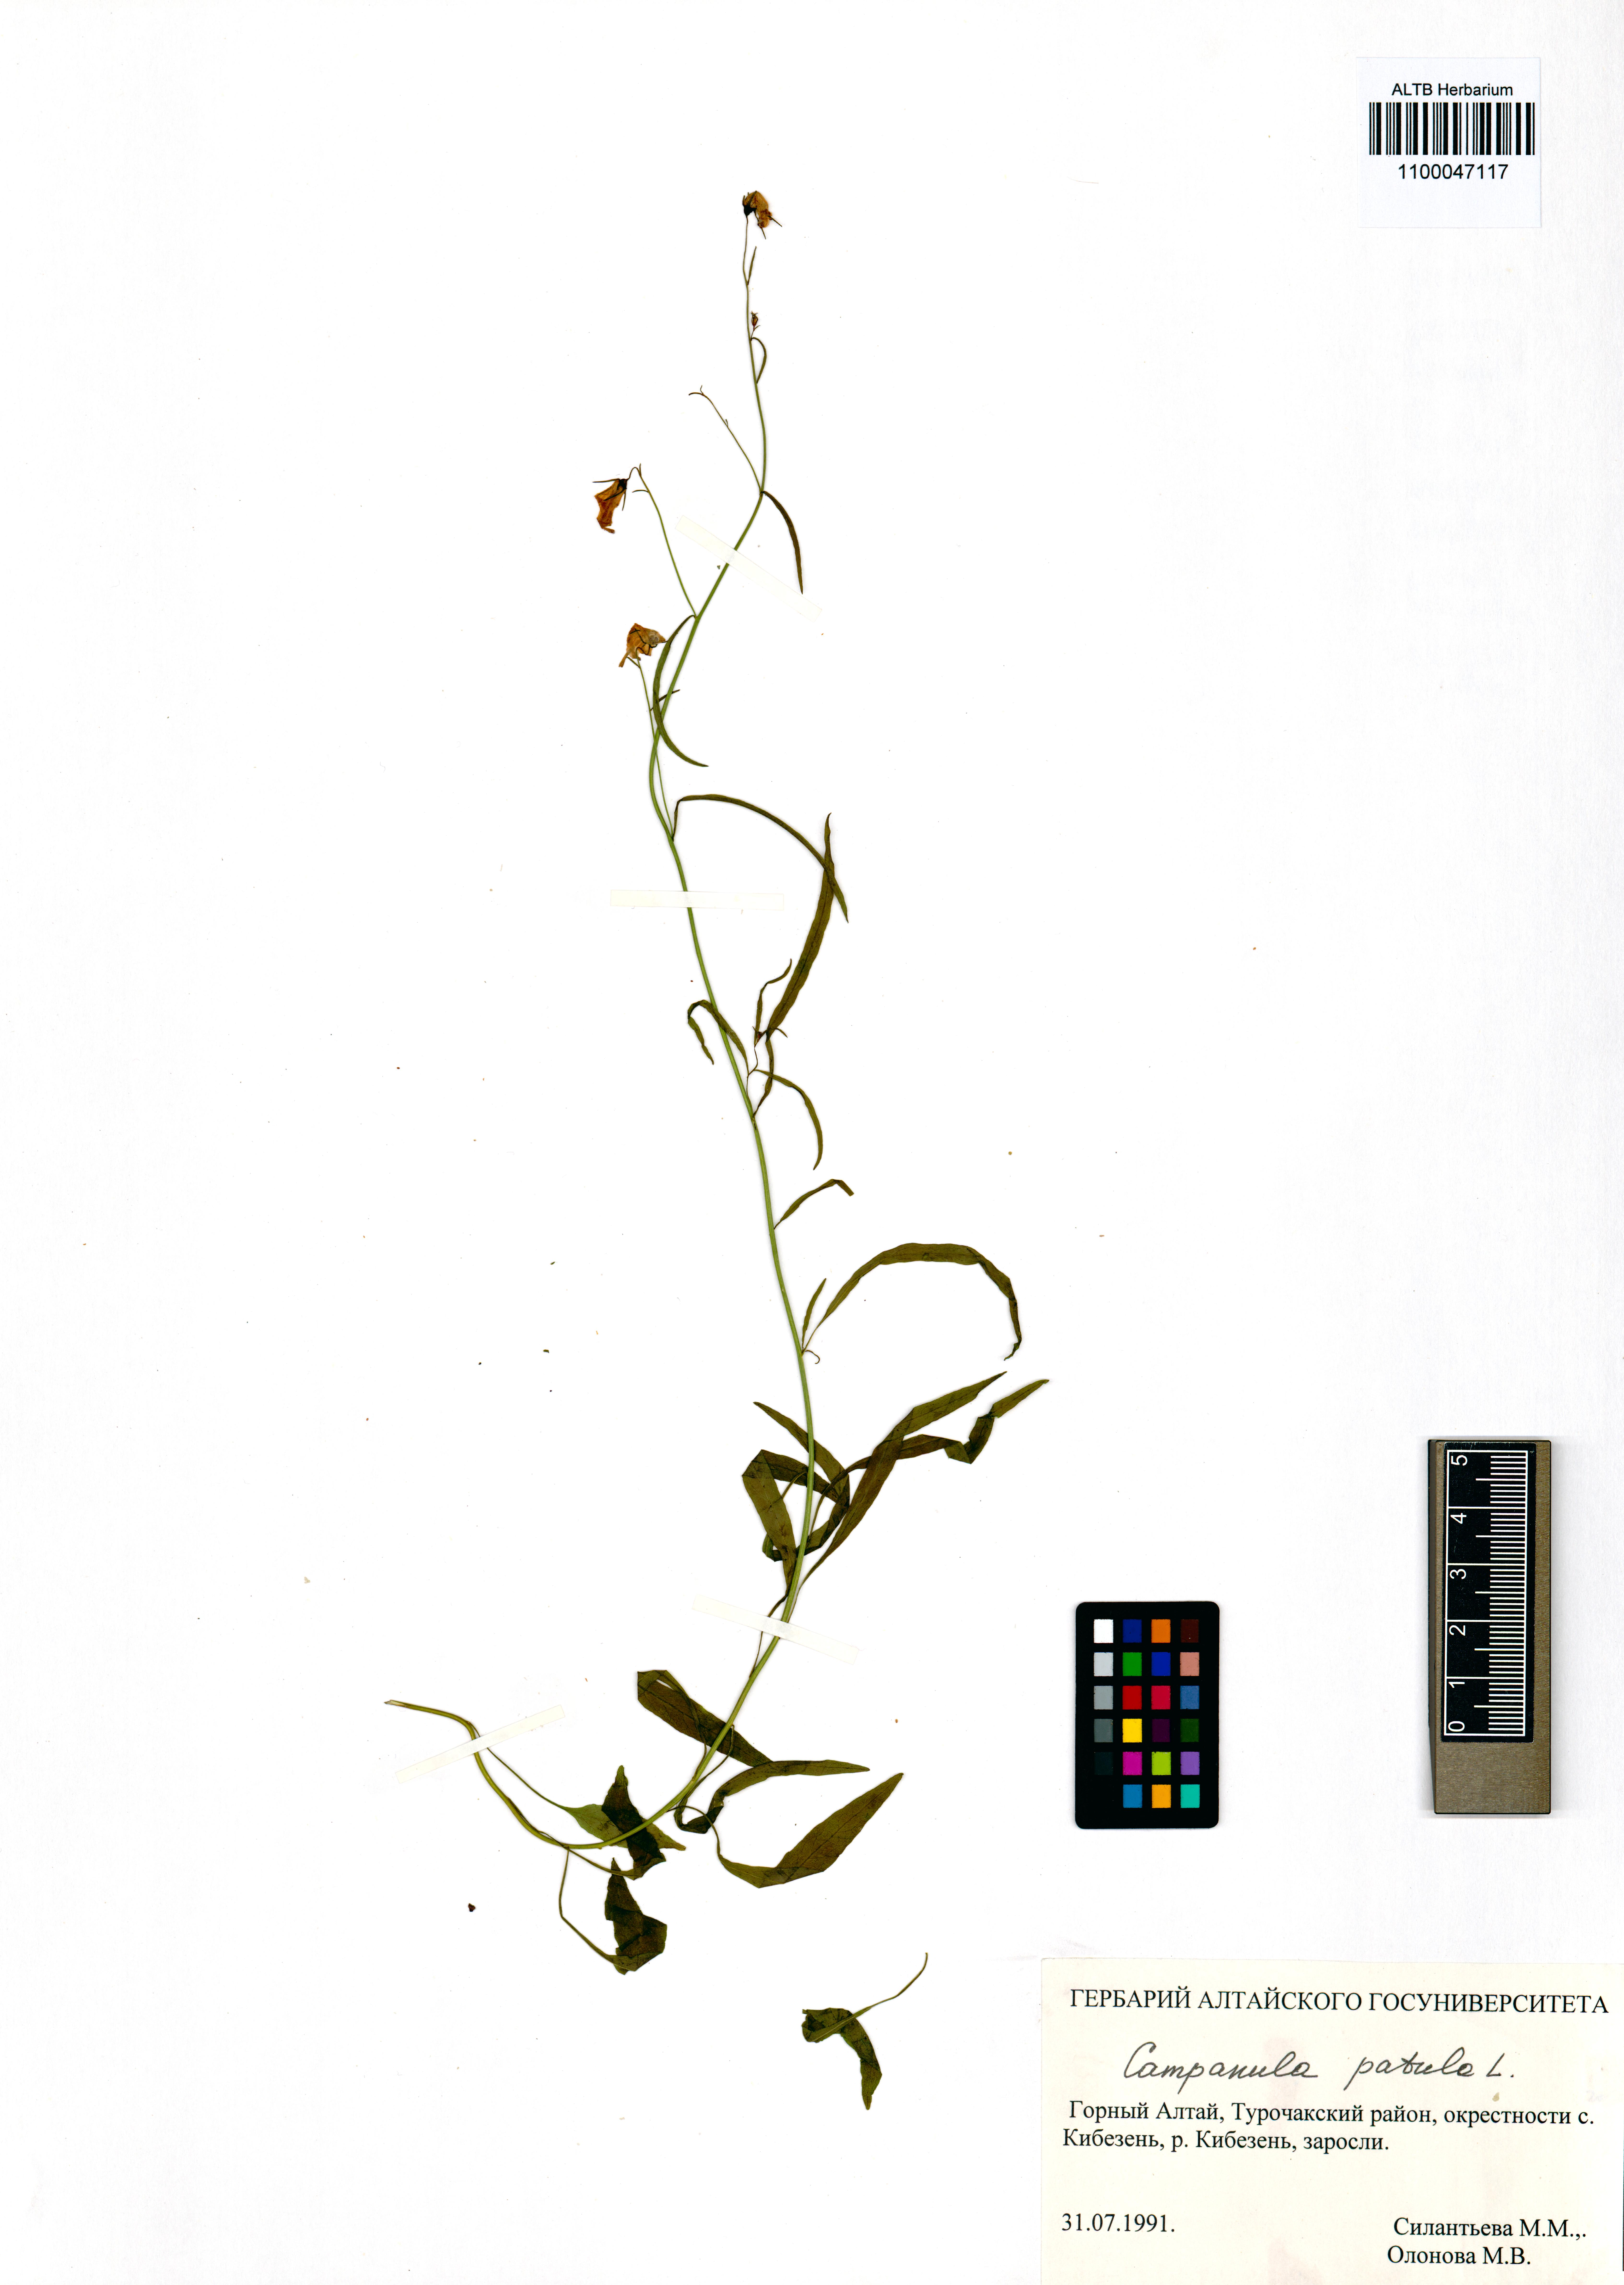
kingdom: Plantae
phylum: Tracheophyta
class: Magnoliopsida
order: Asterales
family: Campanulaceae
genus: Campanula
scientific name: Campanula patula
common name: Spreading bellflower
